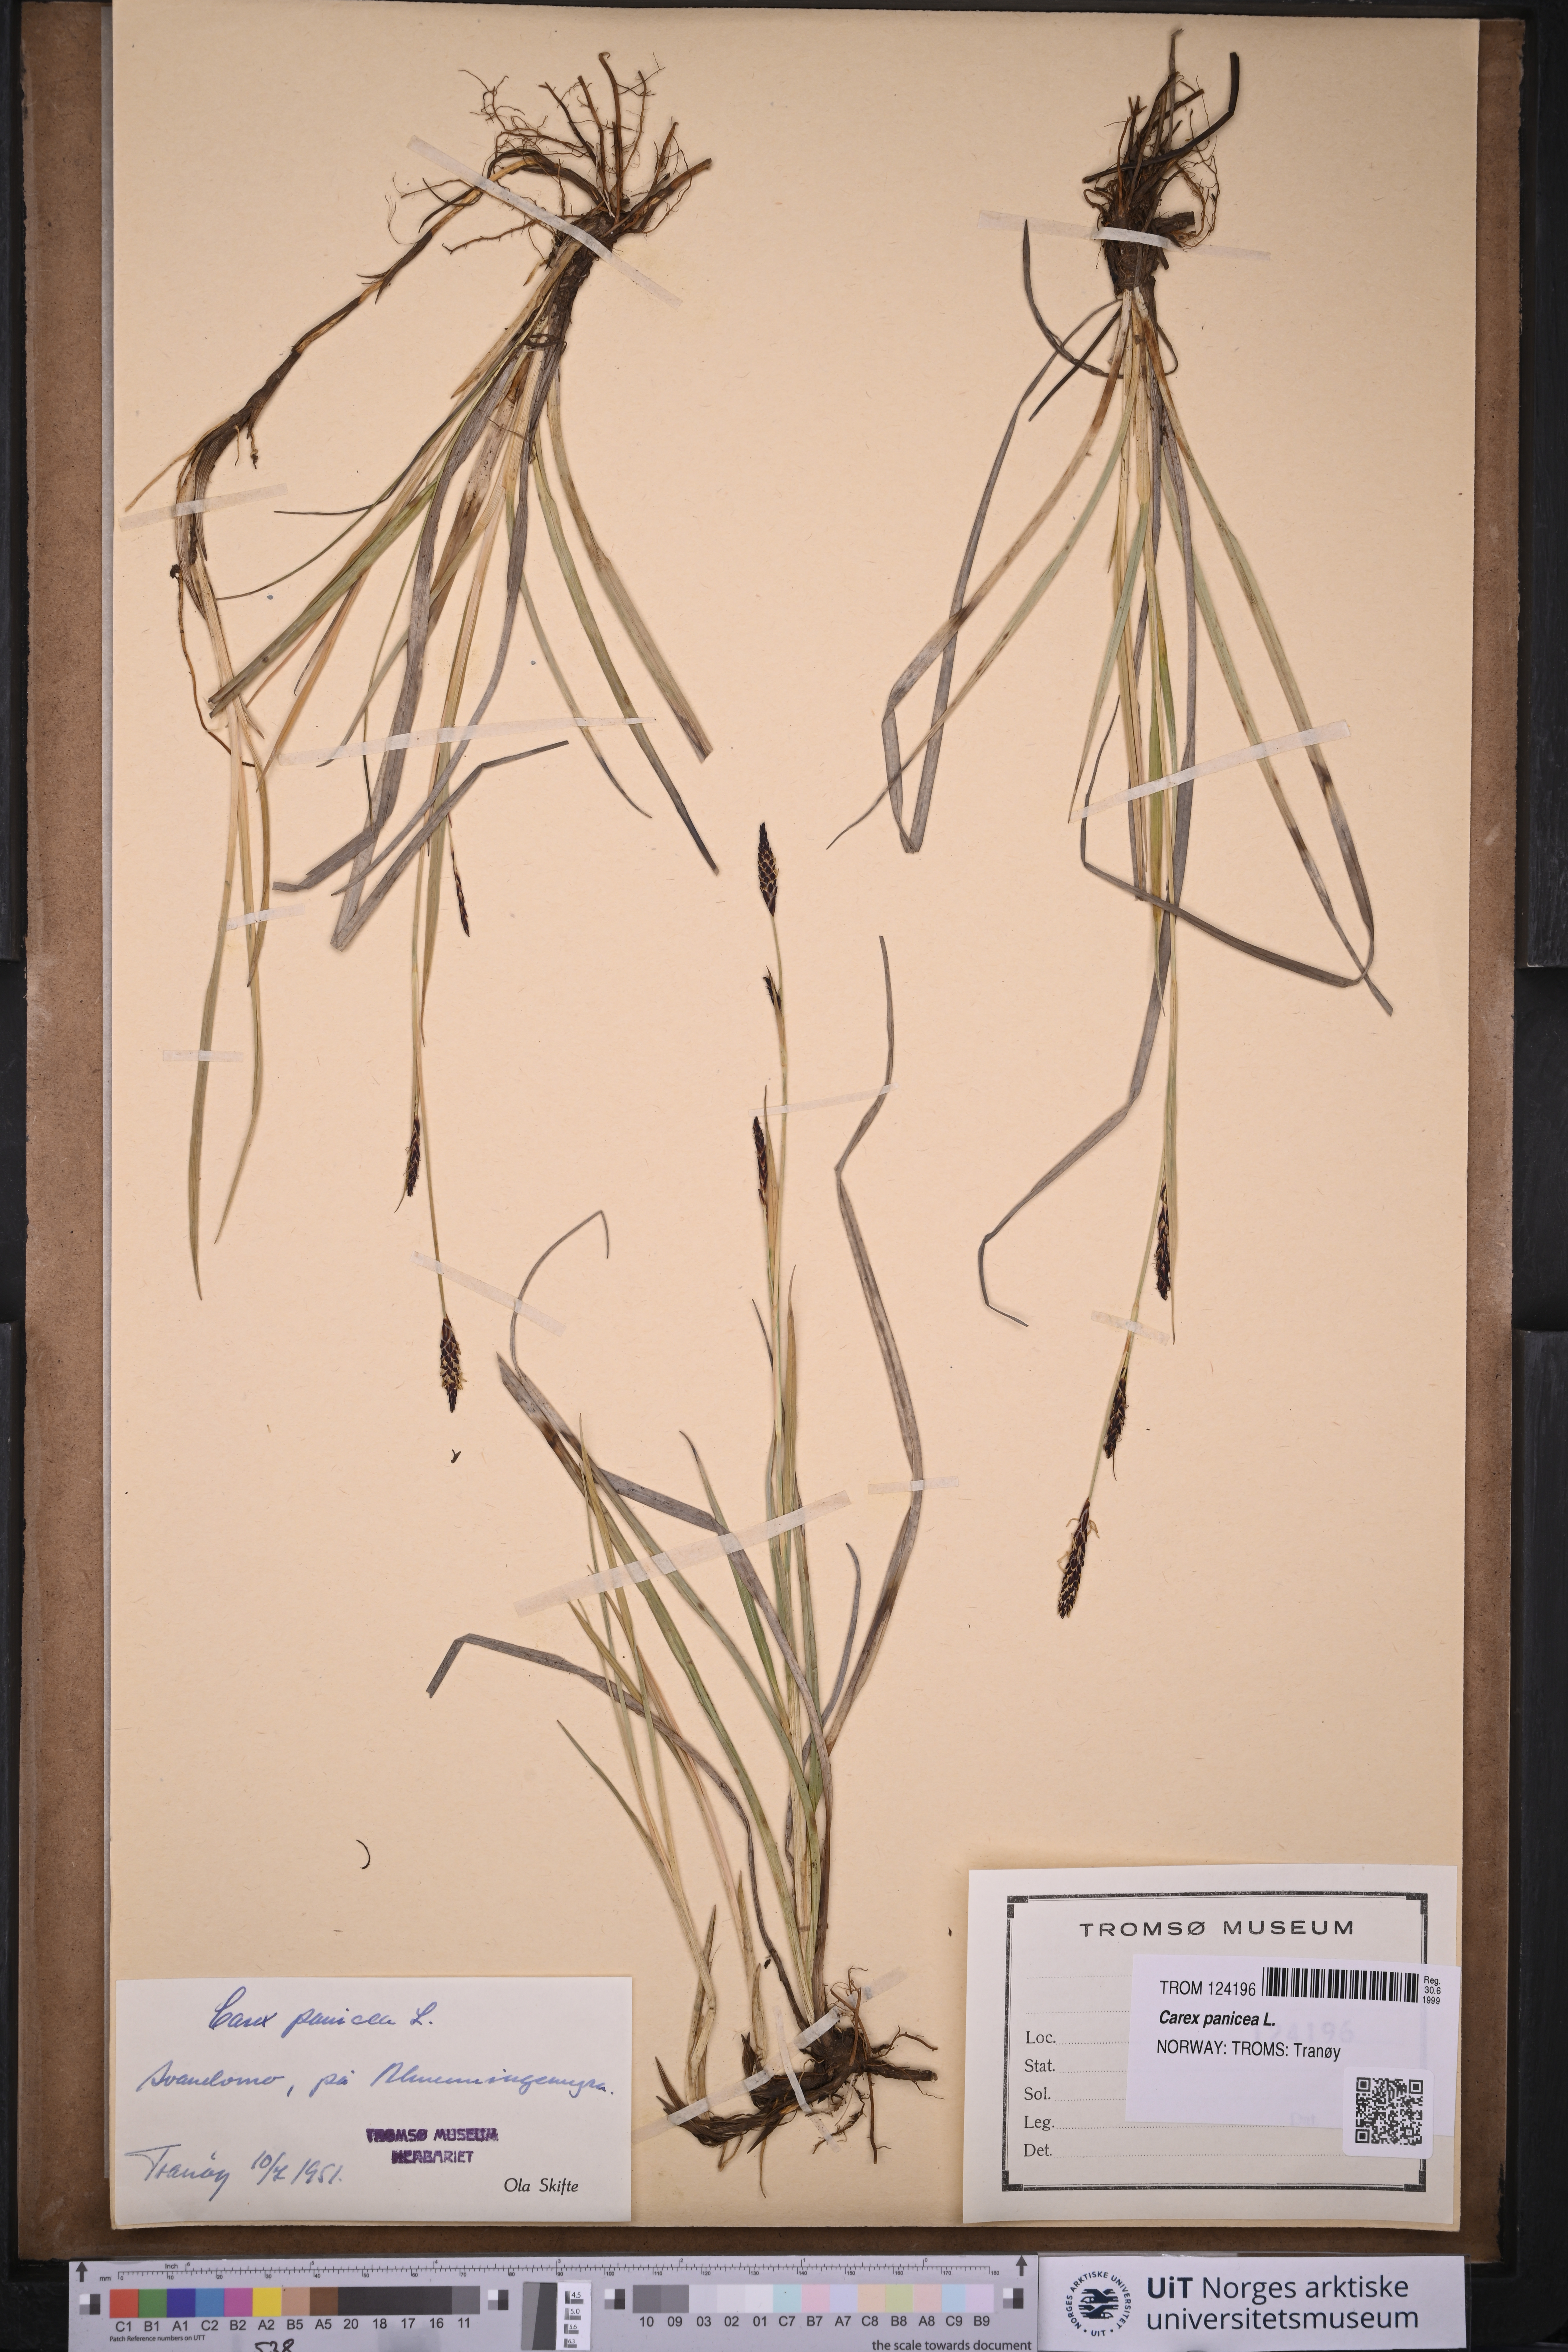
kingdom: Plantae
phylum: Tracheophyta
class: Liliopsida
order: Poales
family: Cyperaceae
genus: Carex
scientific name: Carex panicea
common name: Carnation sedge
